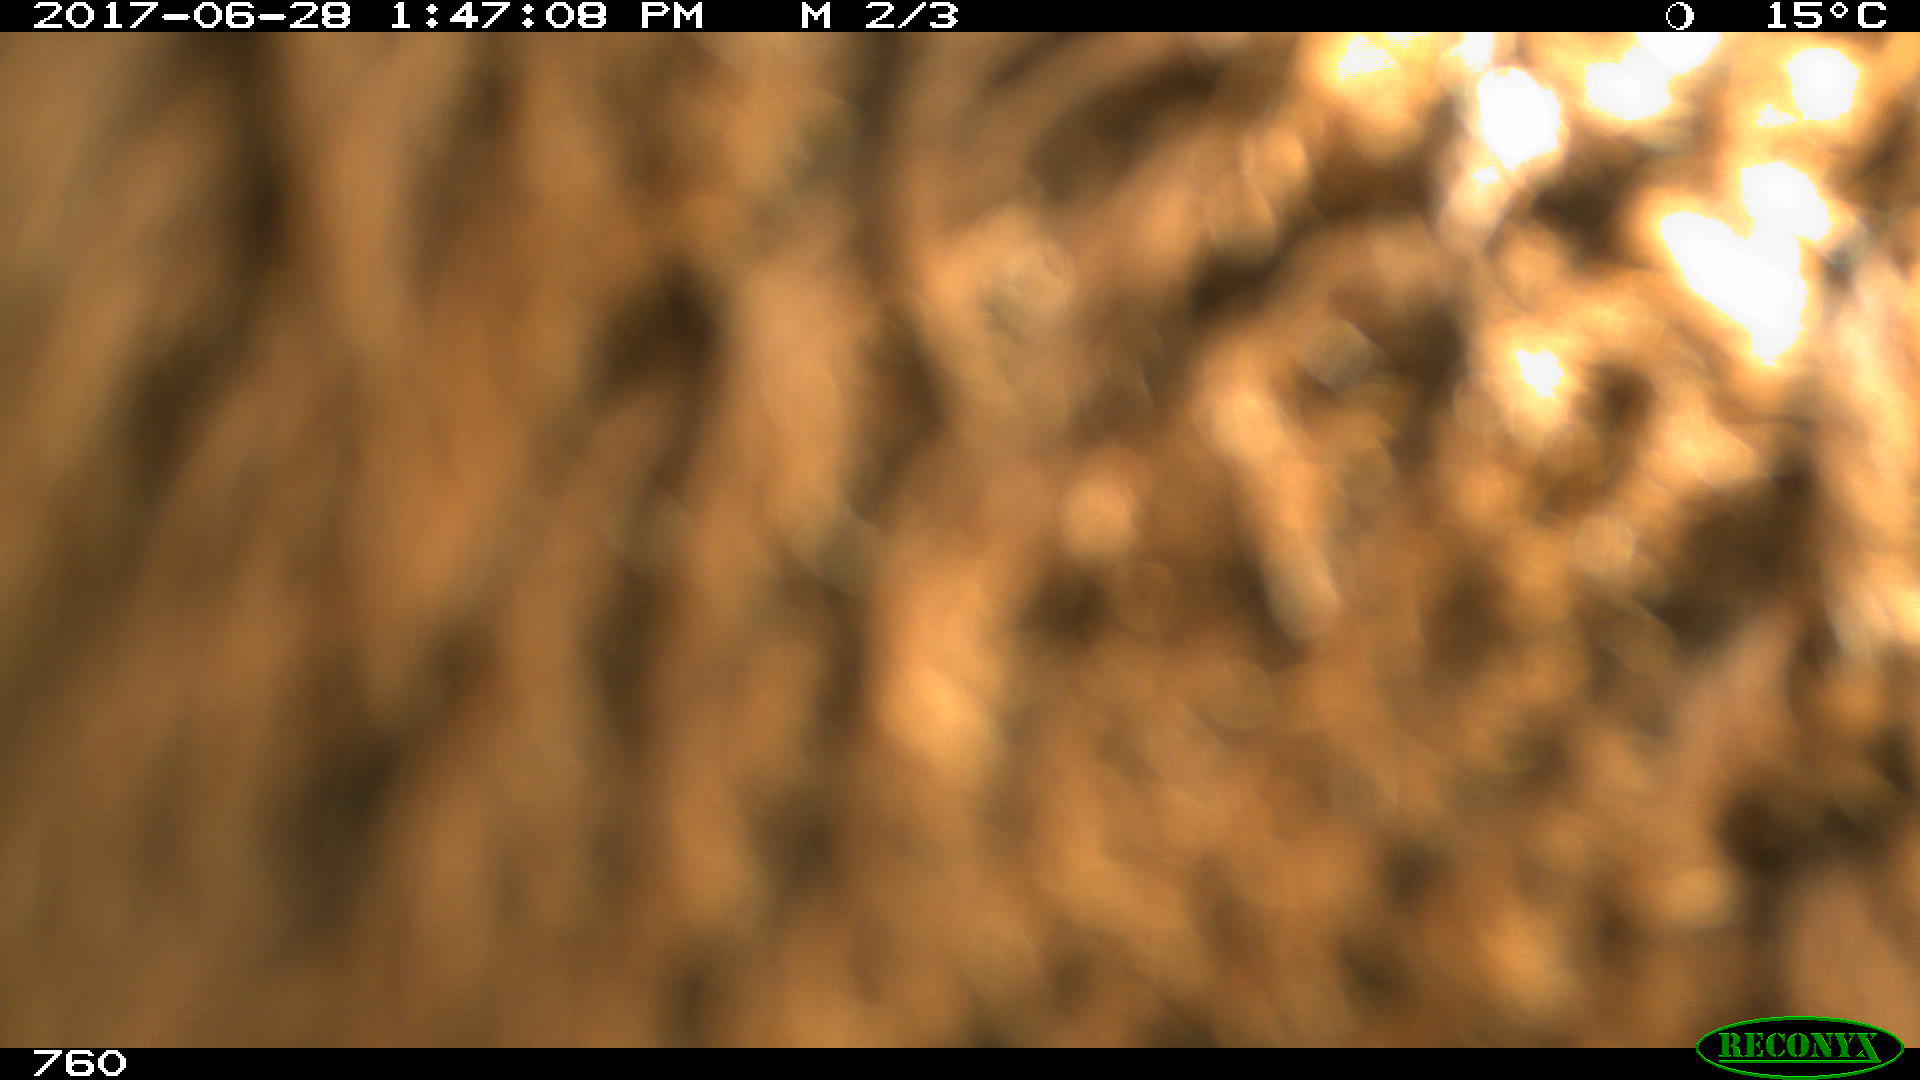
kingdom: Animalia
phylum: Chordata
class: Mammalia
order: Perissodactyla
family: Equidae
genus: Equus
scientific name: Equus caballus
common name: Horse
